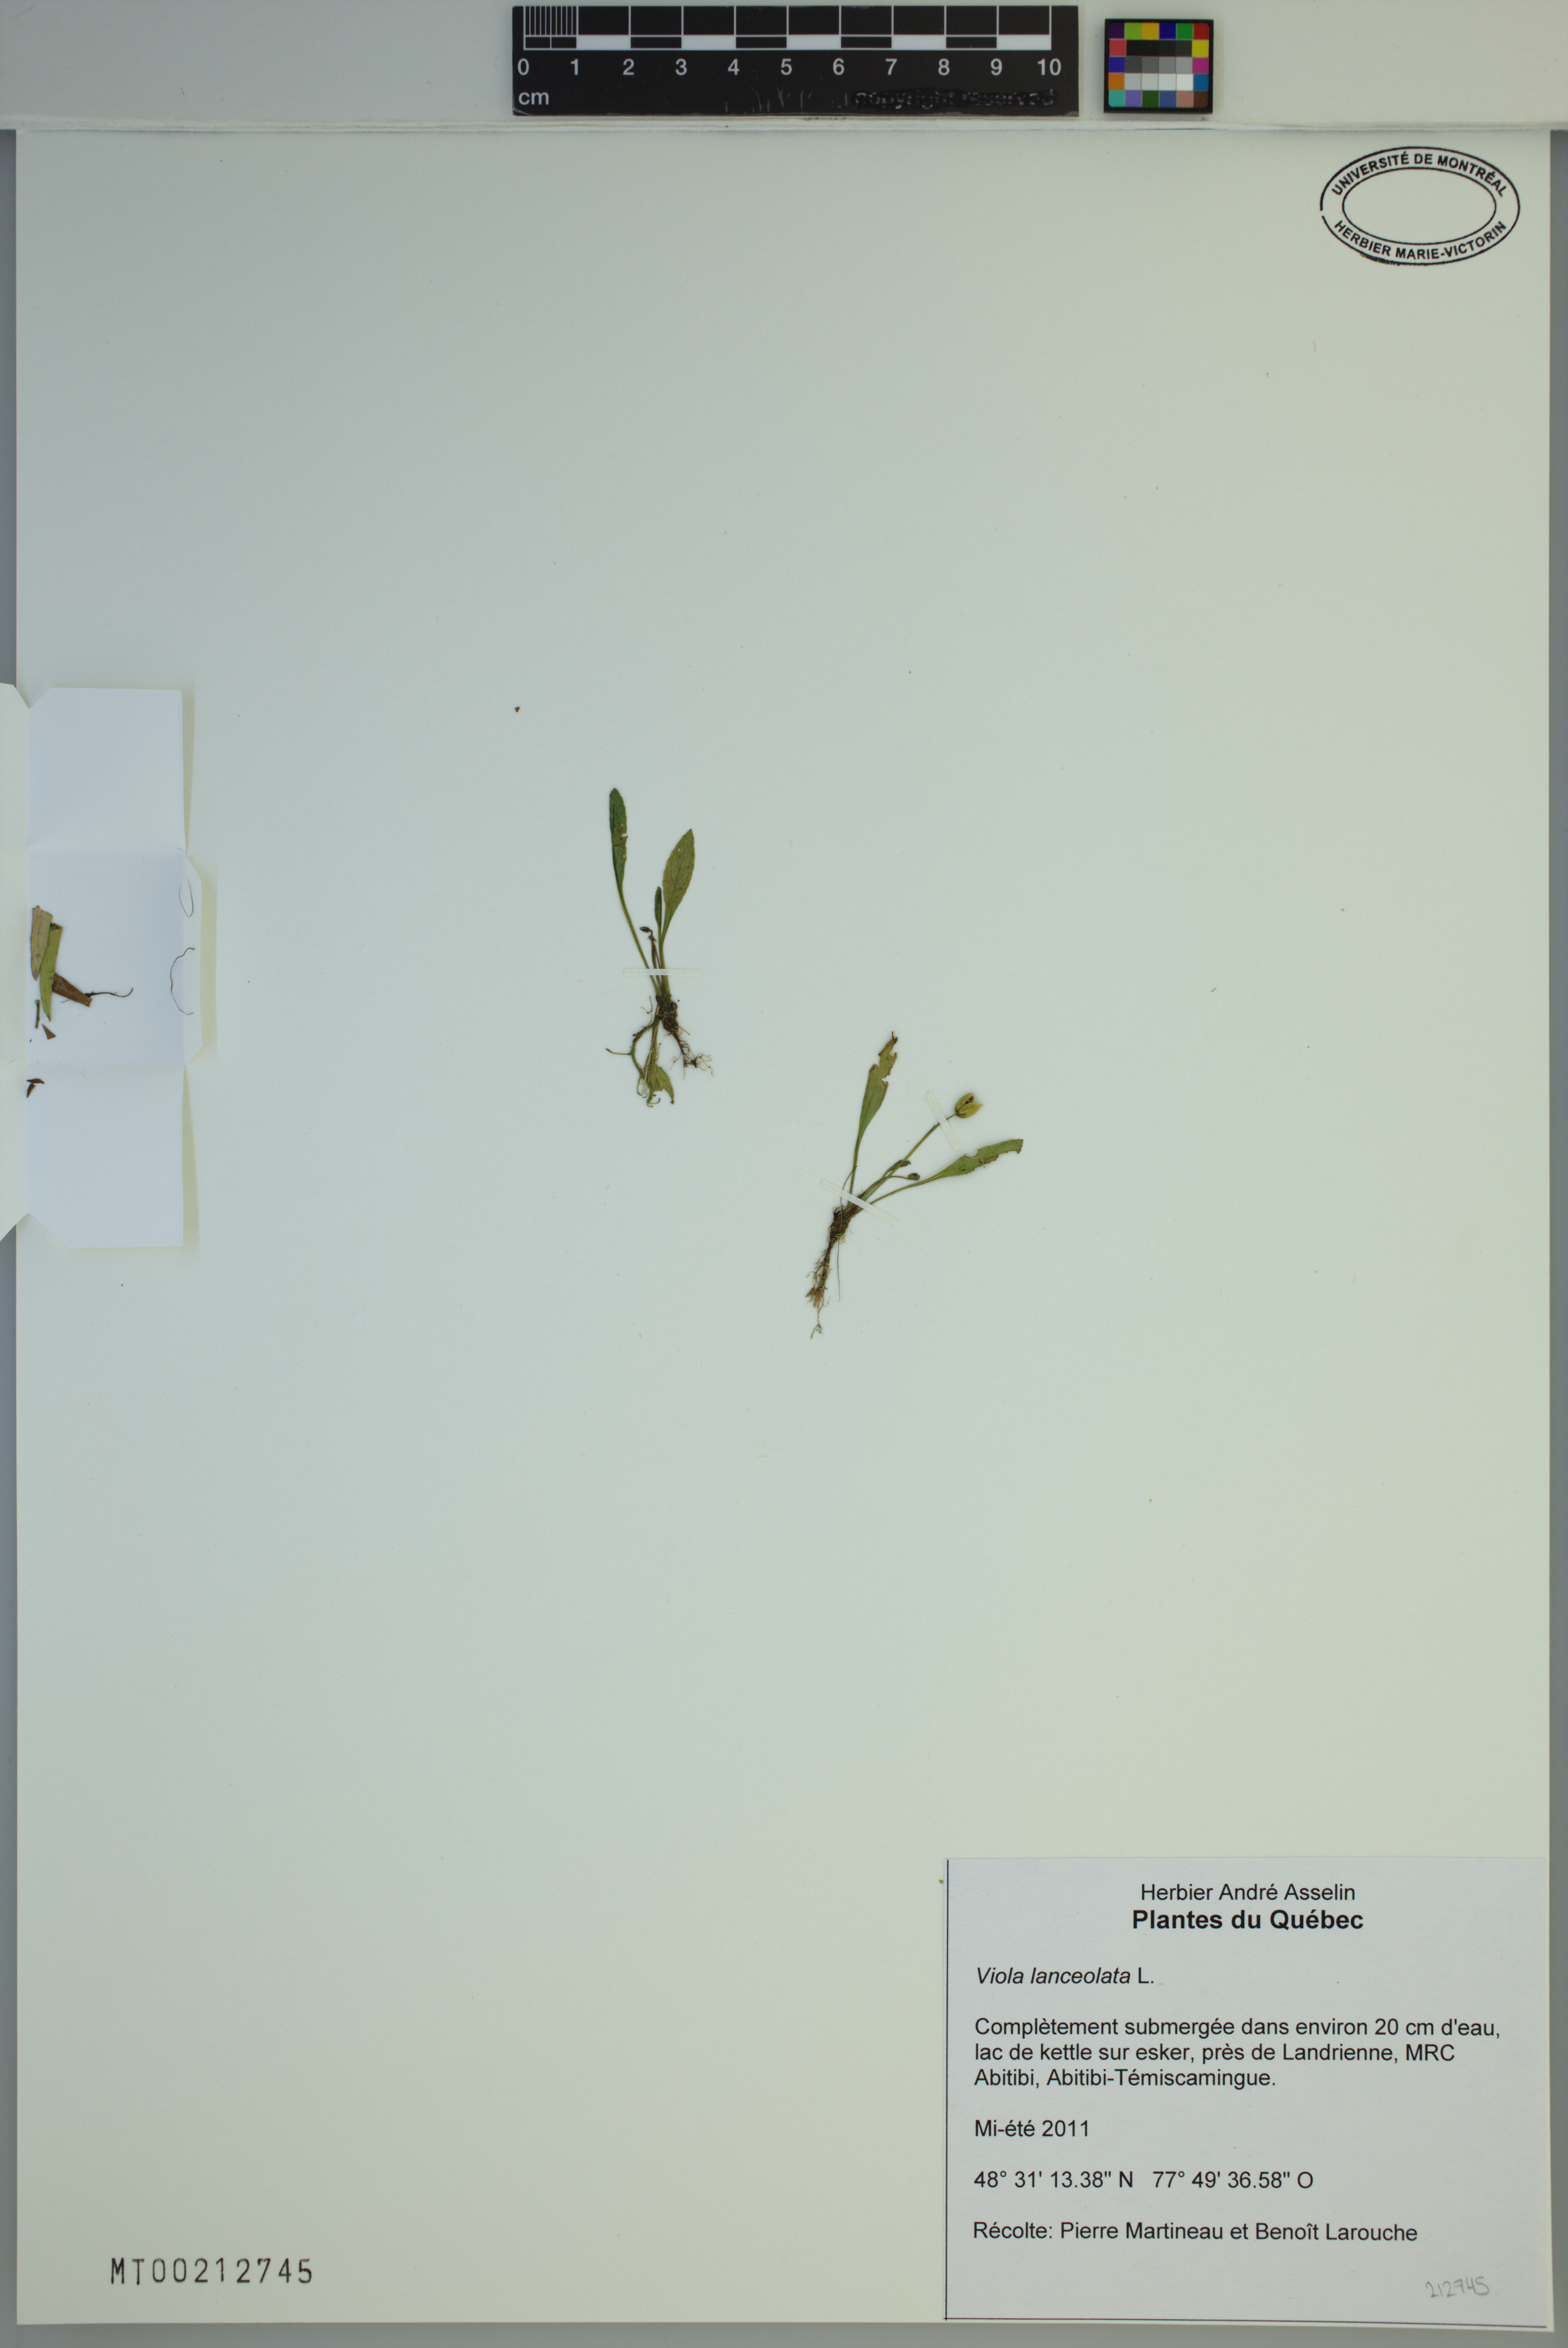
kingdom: Plantae
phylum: Tracheophyta
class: Magnoliopsida
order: Malpighiales
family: Violaceae
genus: Viola
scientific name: Viola lanceolata
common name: Bog white violet
